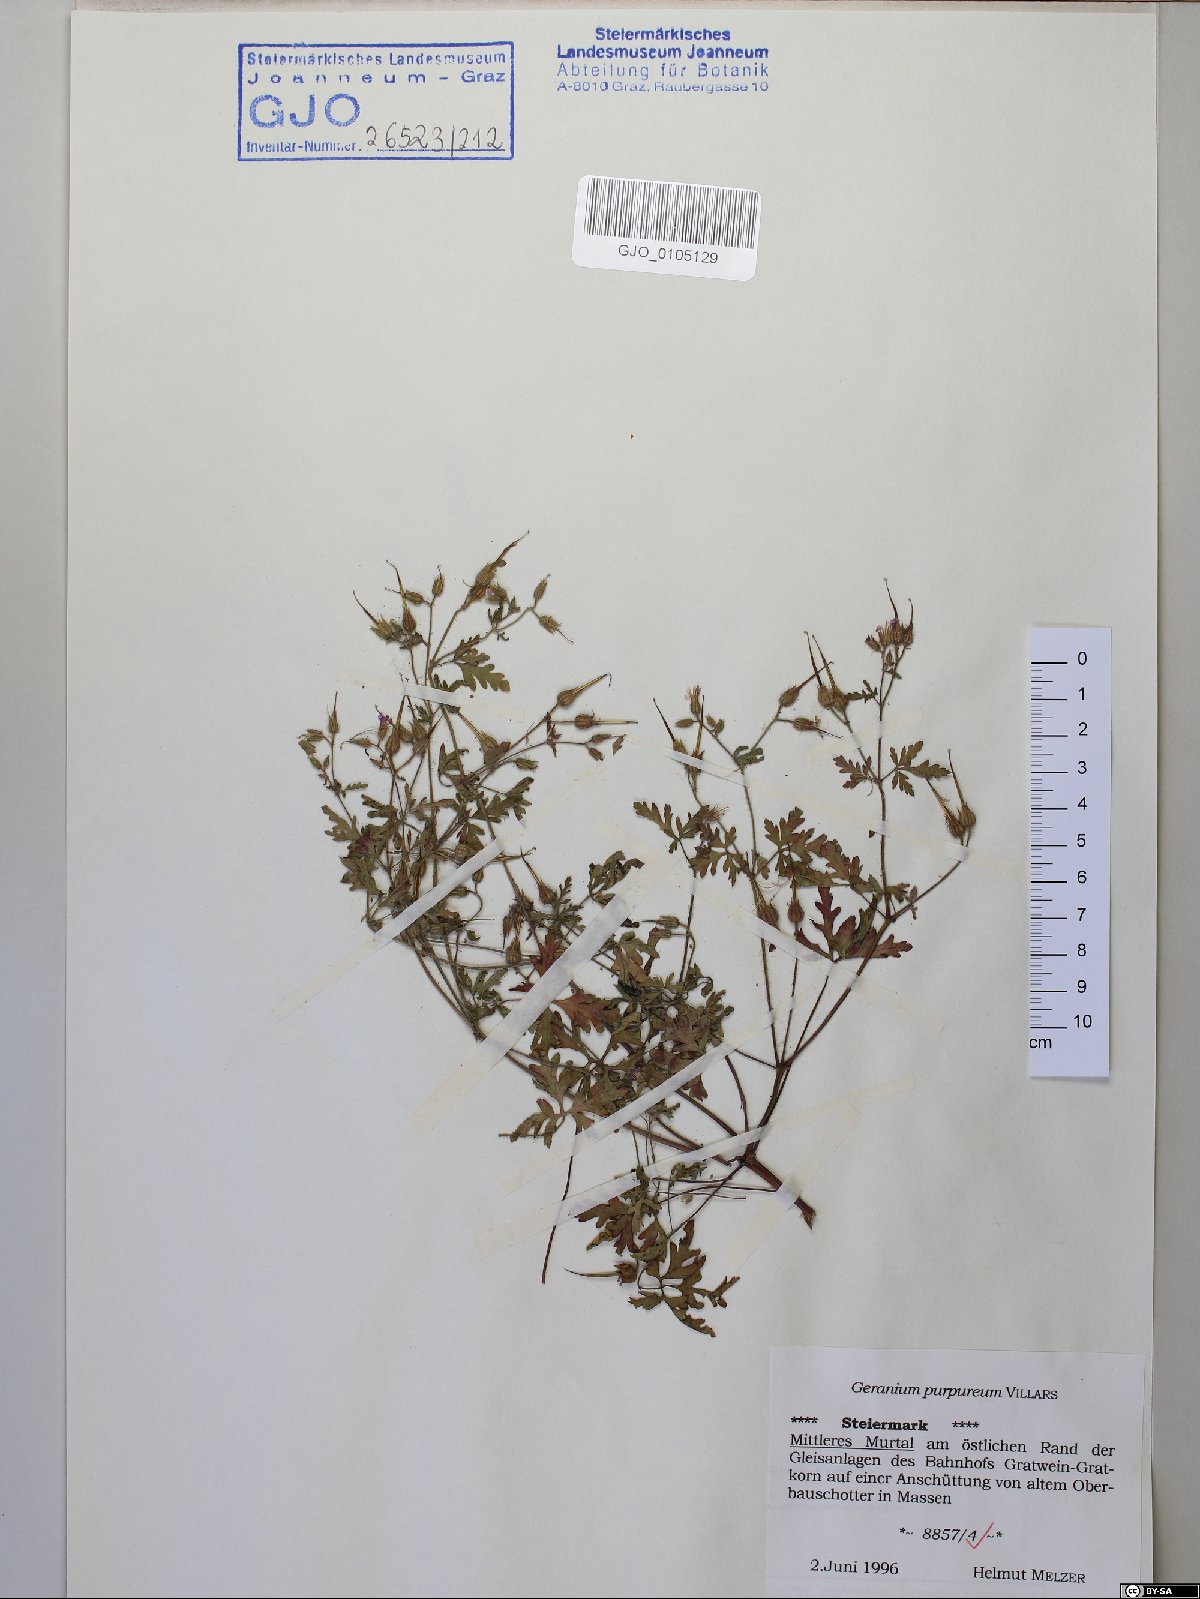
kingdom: Plantae
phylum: Tracheophyta
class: Magnoliopsida
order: Geraniales
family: Geraniaceae
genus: Geranium
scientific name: Geranium purpureum
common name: Little-robin
